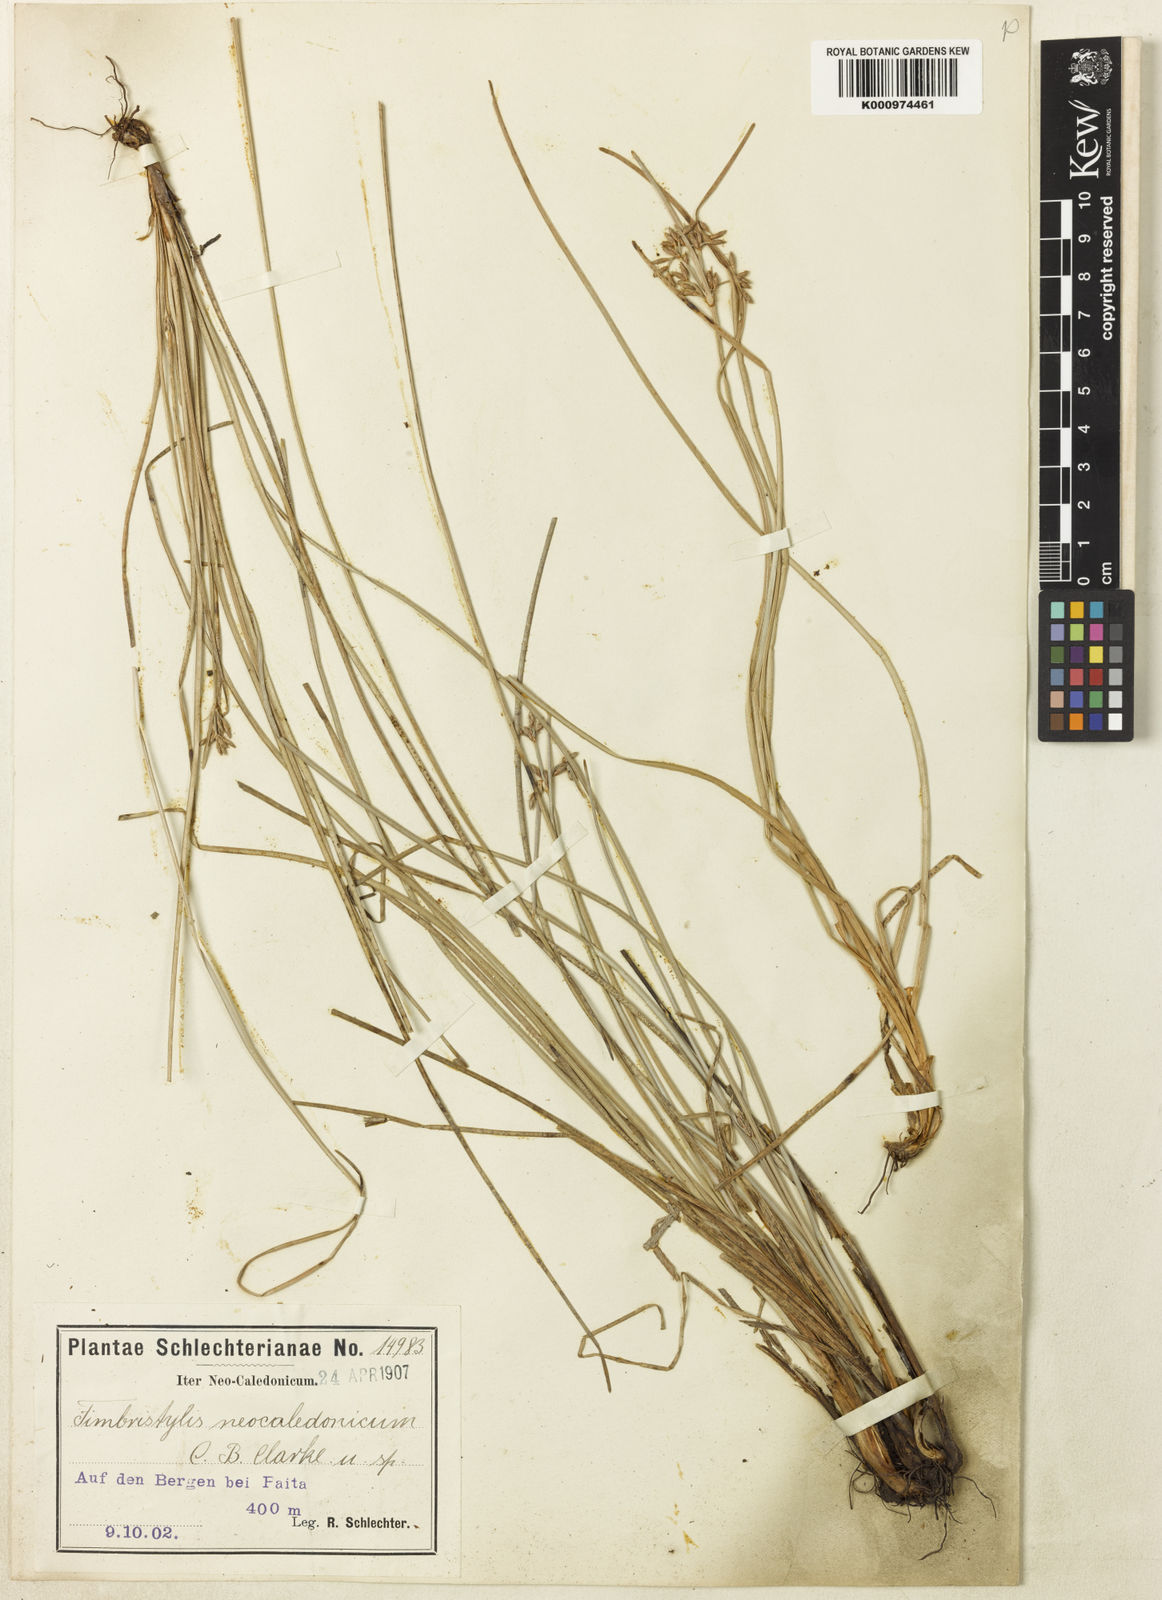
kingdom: Plantae
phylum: Tracheophyta
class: Liliopsida
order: Poales
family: Cyperaceae
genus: Fimbristylis
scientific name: Fimbristylis neocaledonica
